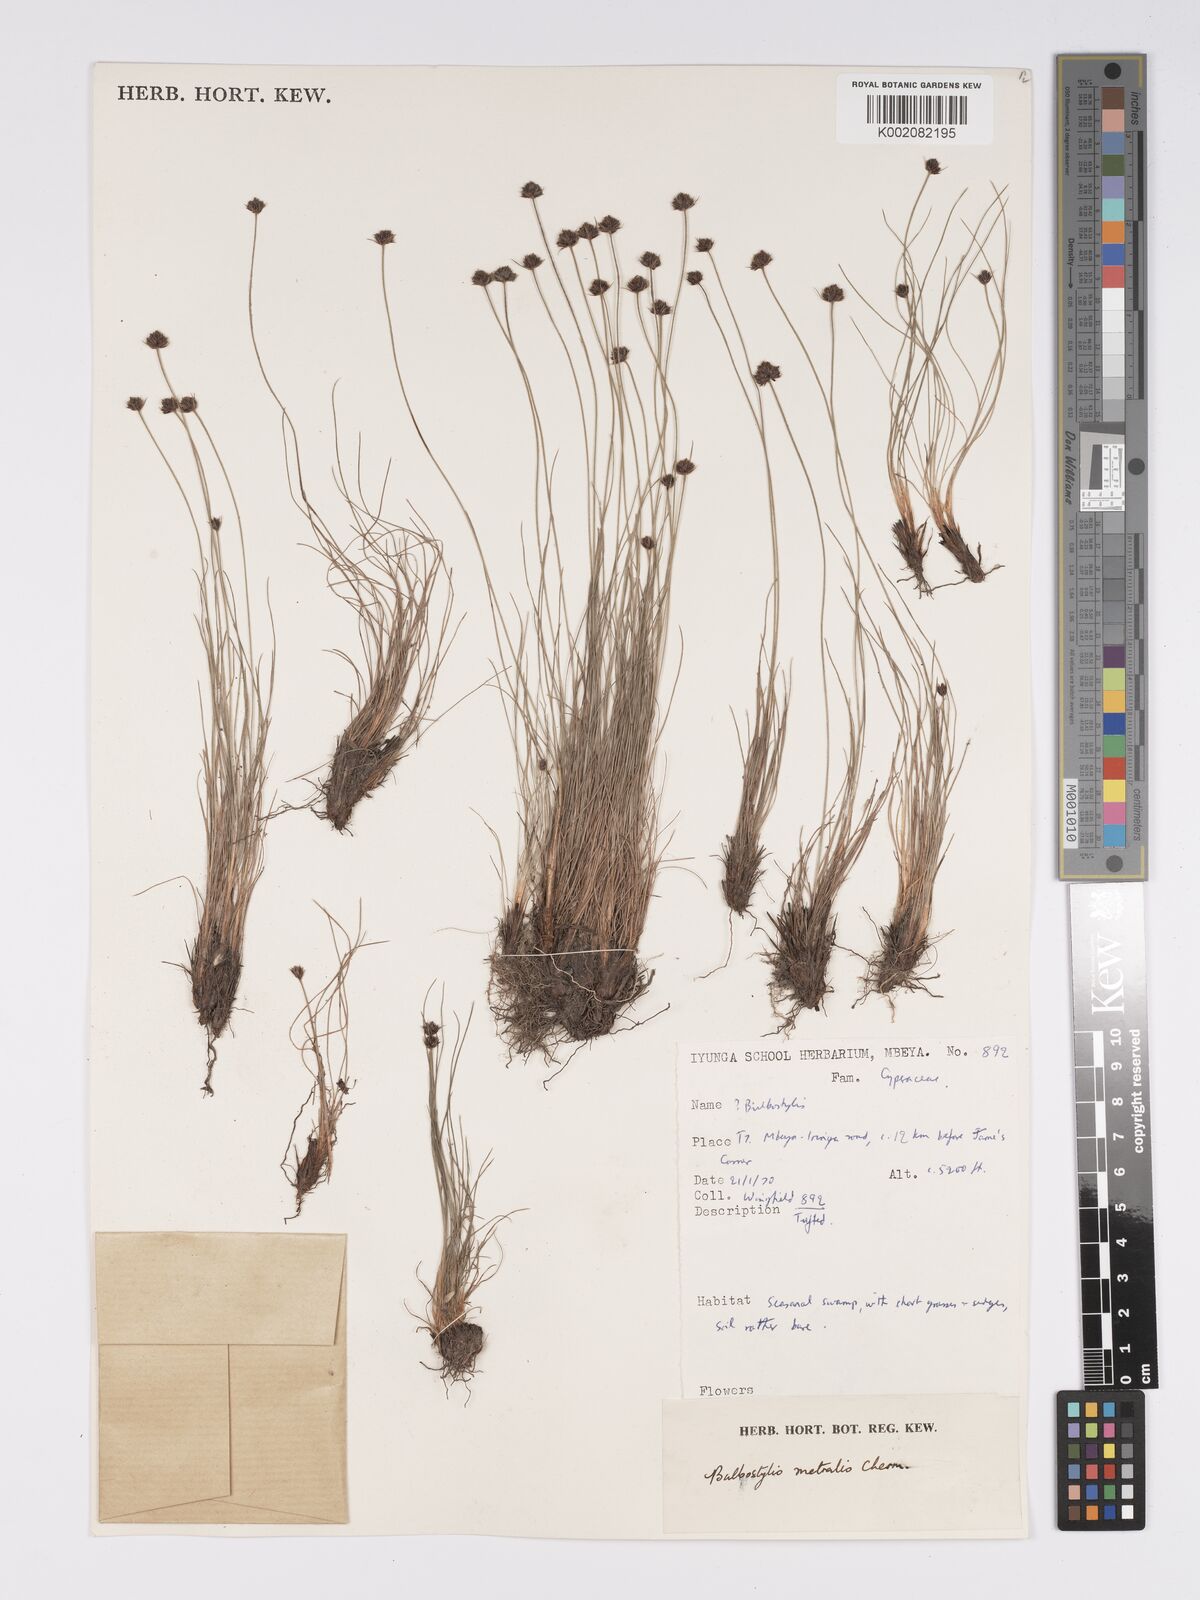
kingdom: Plantae
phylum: Tracheophyta
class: Liliopsida
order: Poales
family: Cyperaceae
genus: Bulbostylis
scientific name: Bulbostylis filamentosa
